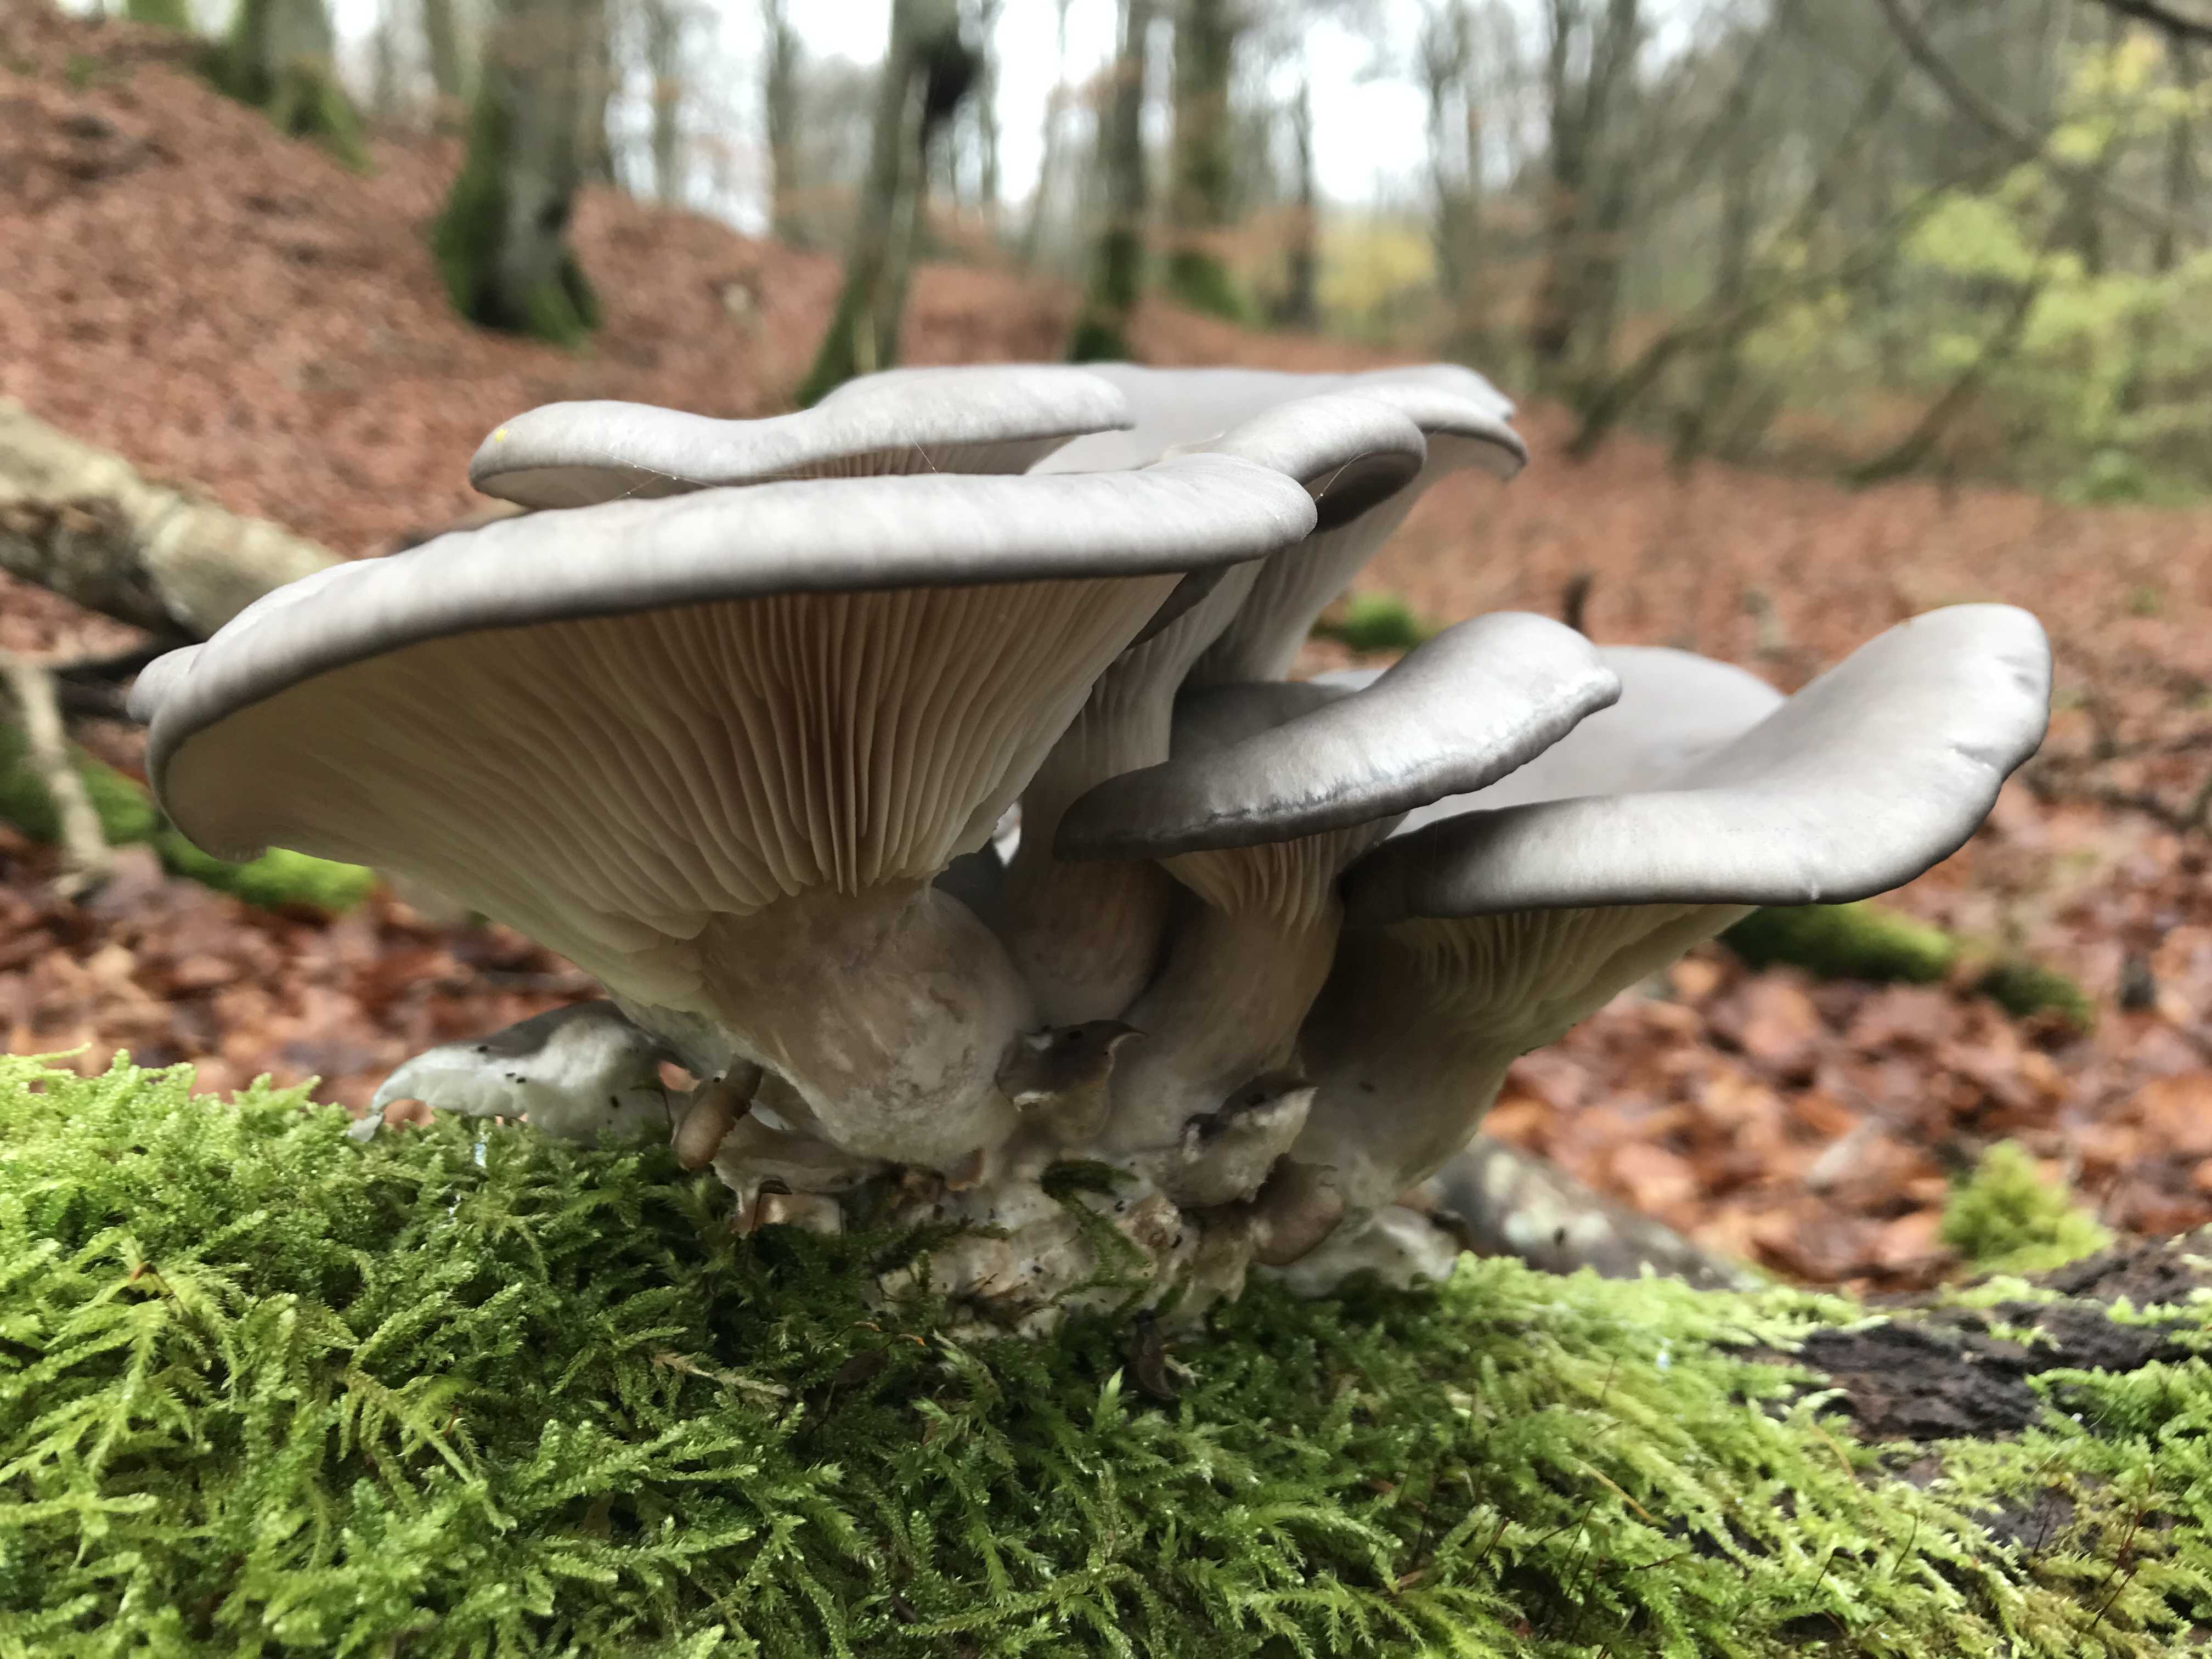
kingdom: Fungi
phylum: Basidiomycota
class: Agaricomycetes
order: Agaricales
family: Pleurotaceae
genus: Pleurotus
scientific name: Pleurotus ostreatus
